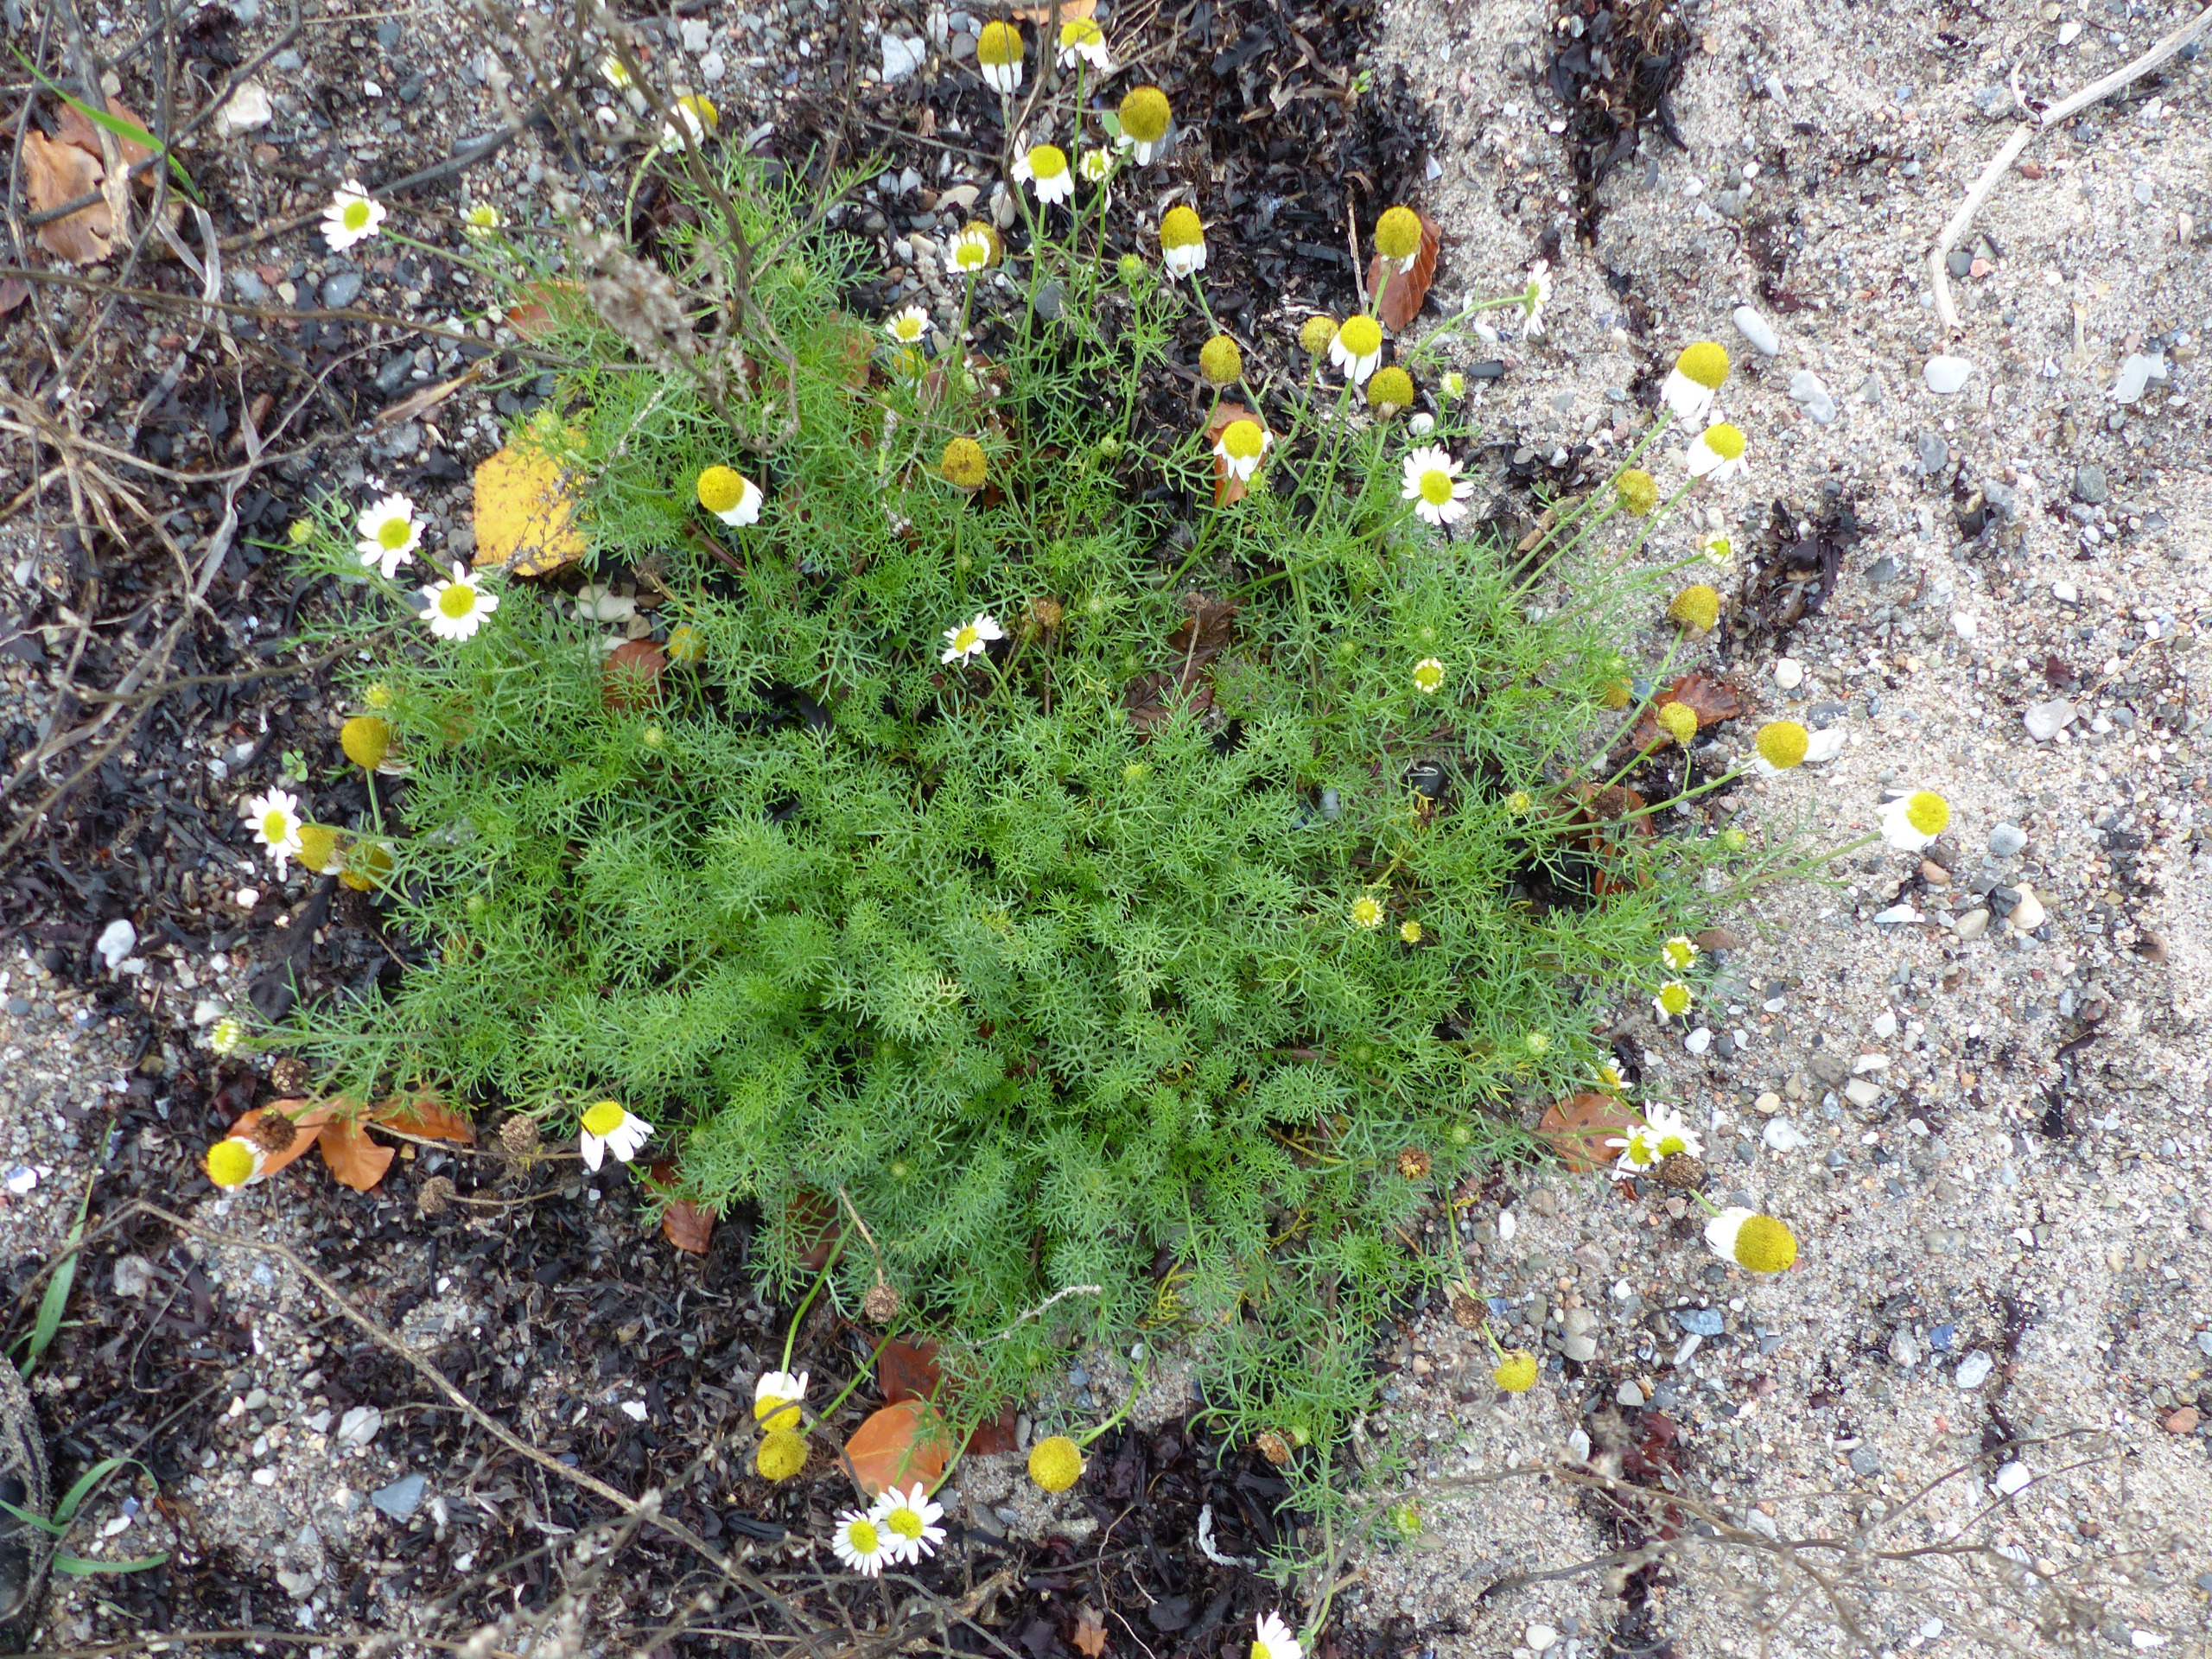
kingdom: Plantae
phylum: Tracheophyta
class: Magnoliopsida
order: Asterales
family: Asteraceae
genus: Tripleurospermum
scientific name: Tripleurospermum maritimum
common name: Strand-kamille
